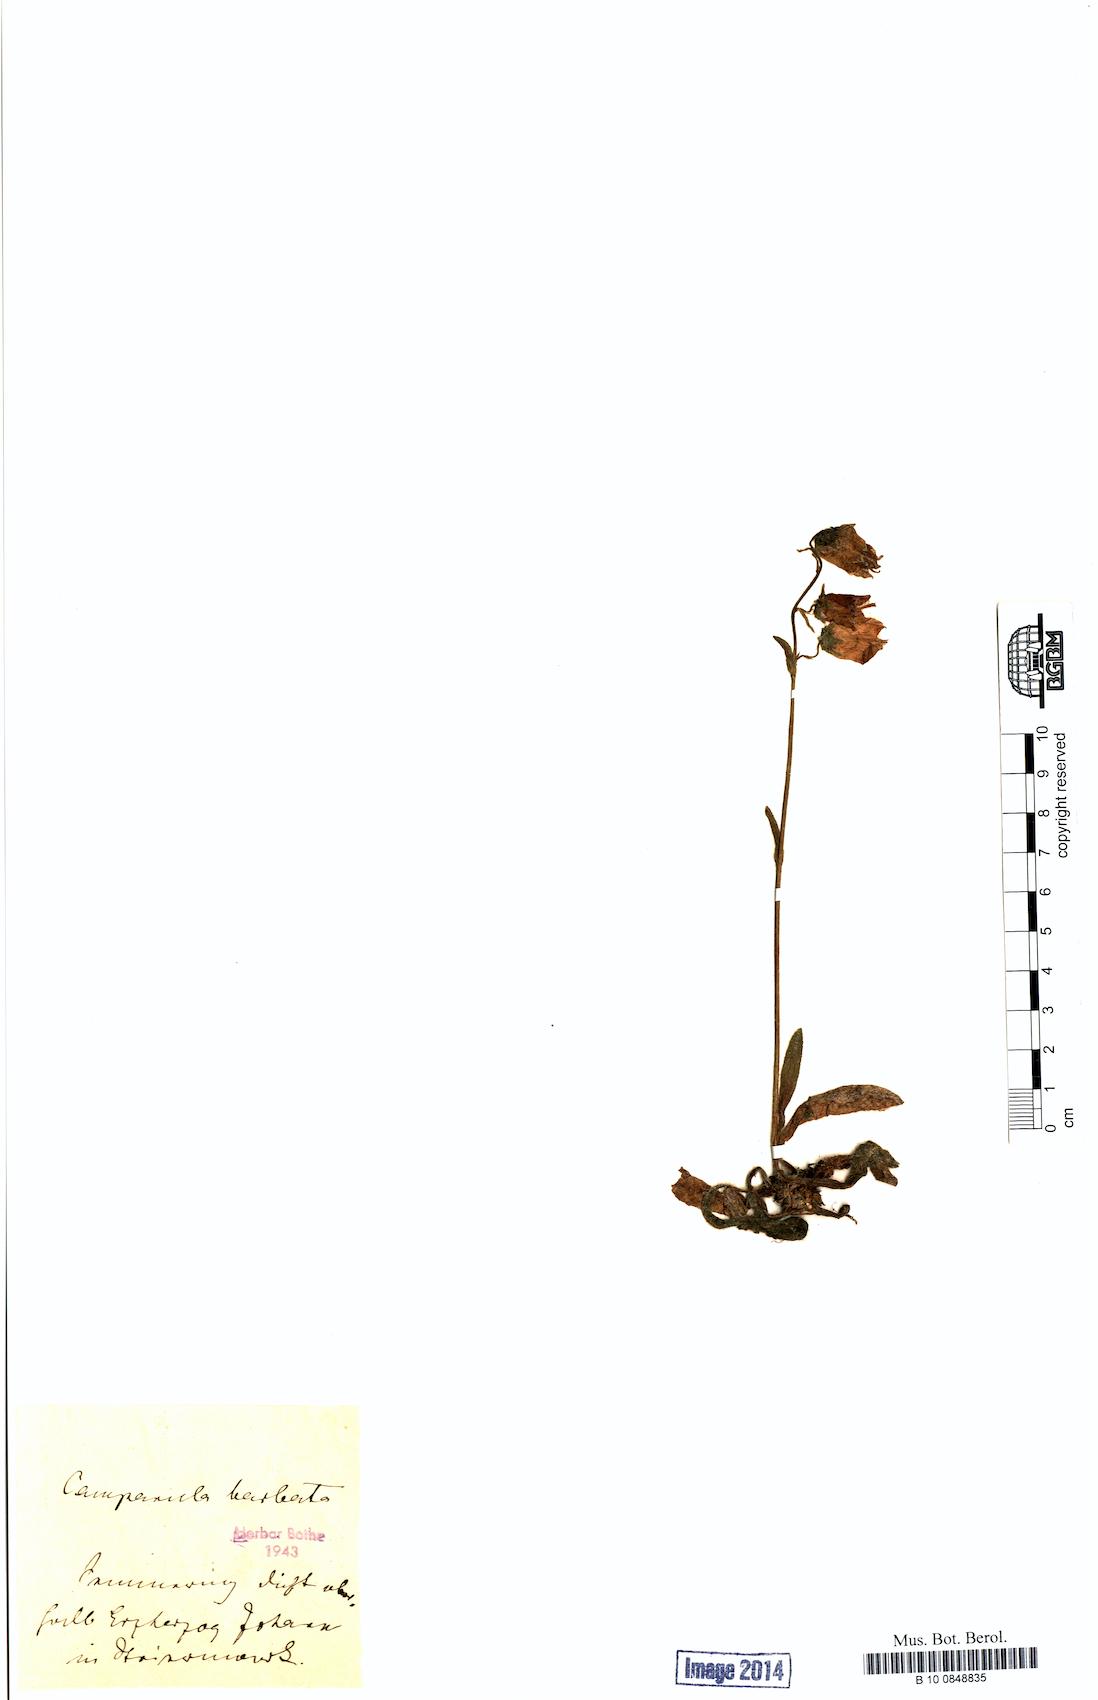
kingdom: Plantae
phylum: Tracheophyta
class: Magnoliopsida
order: Asterales
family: Campanulaceae
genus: Campanula
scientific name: Campanula barbata
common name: Bearded bellflower
